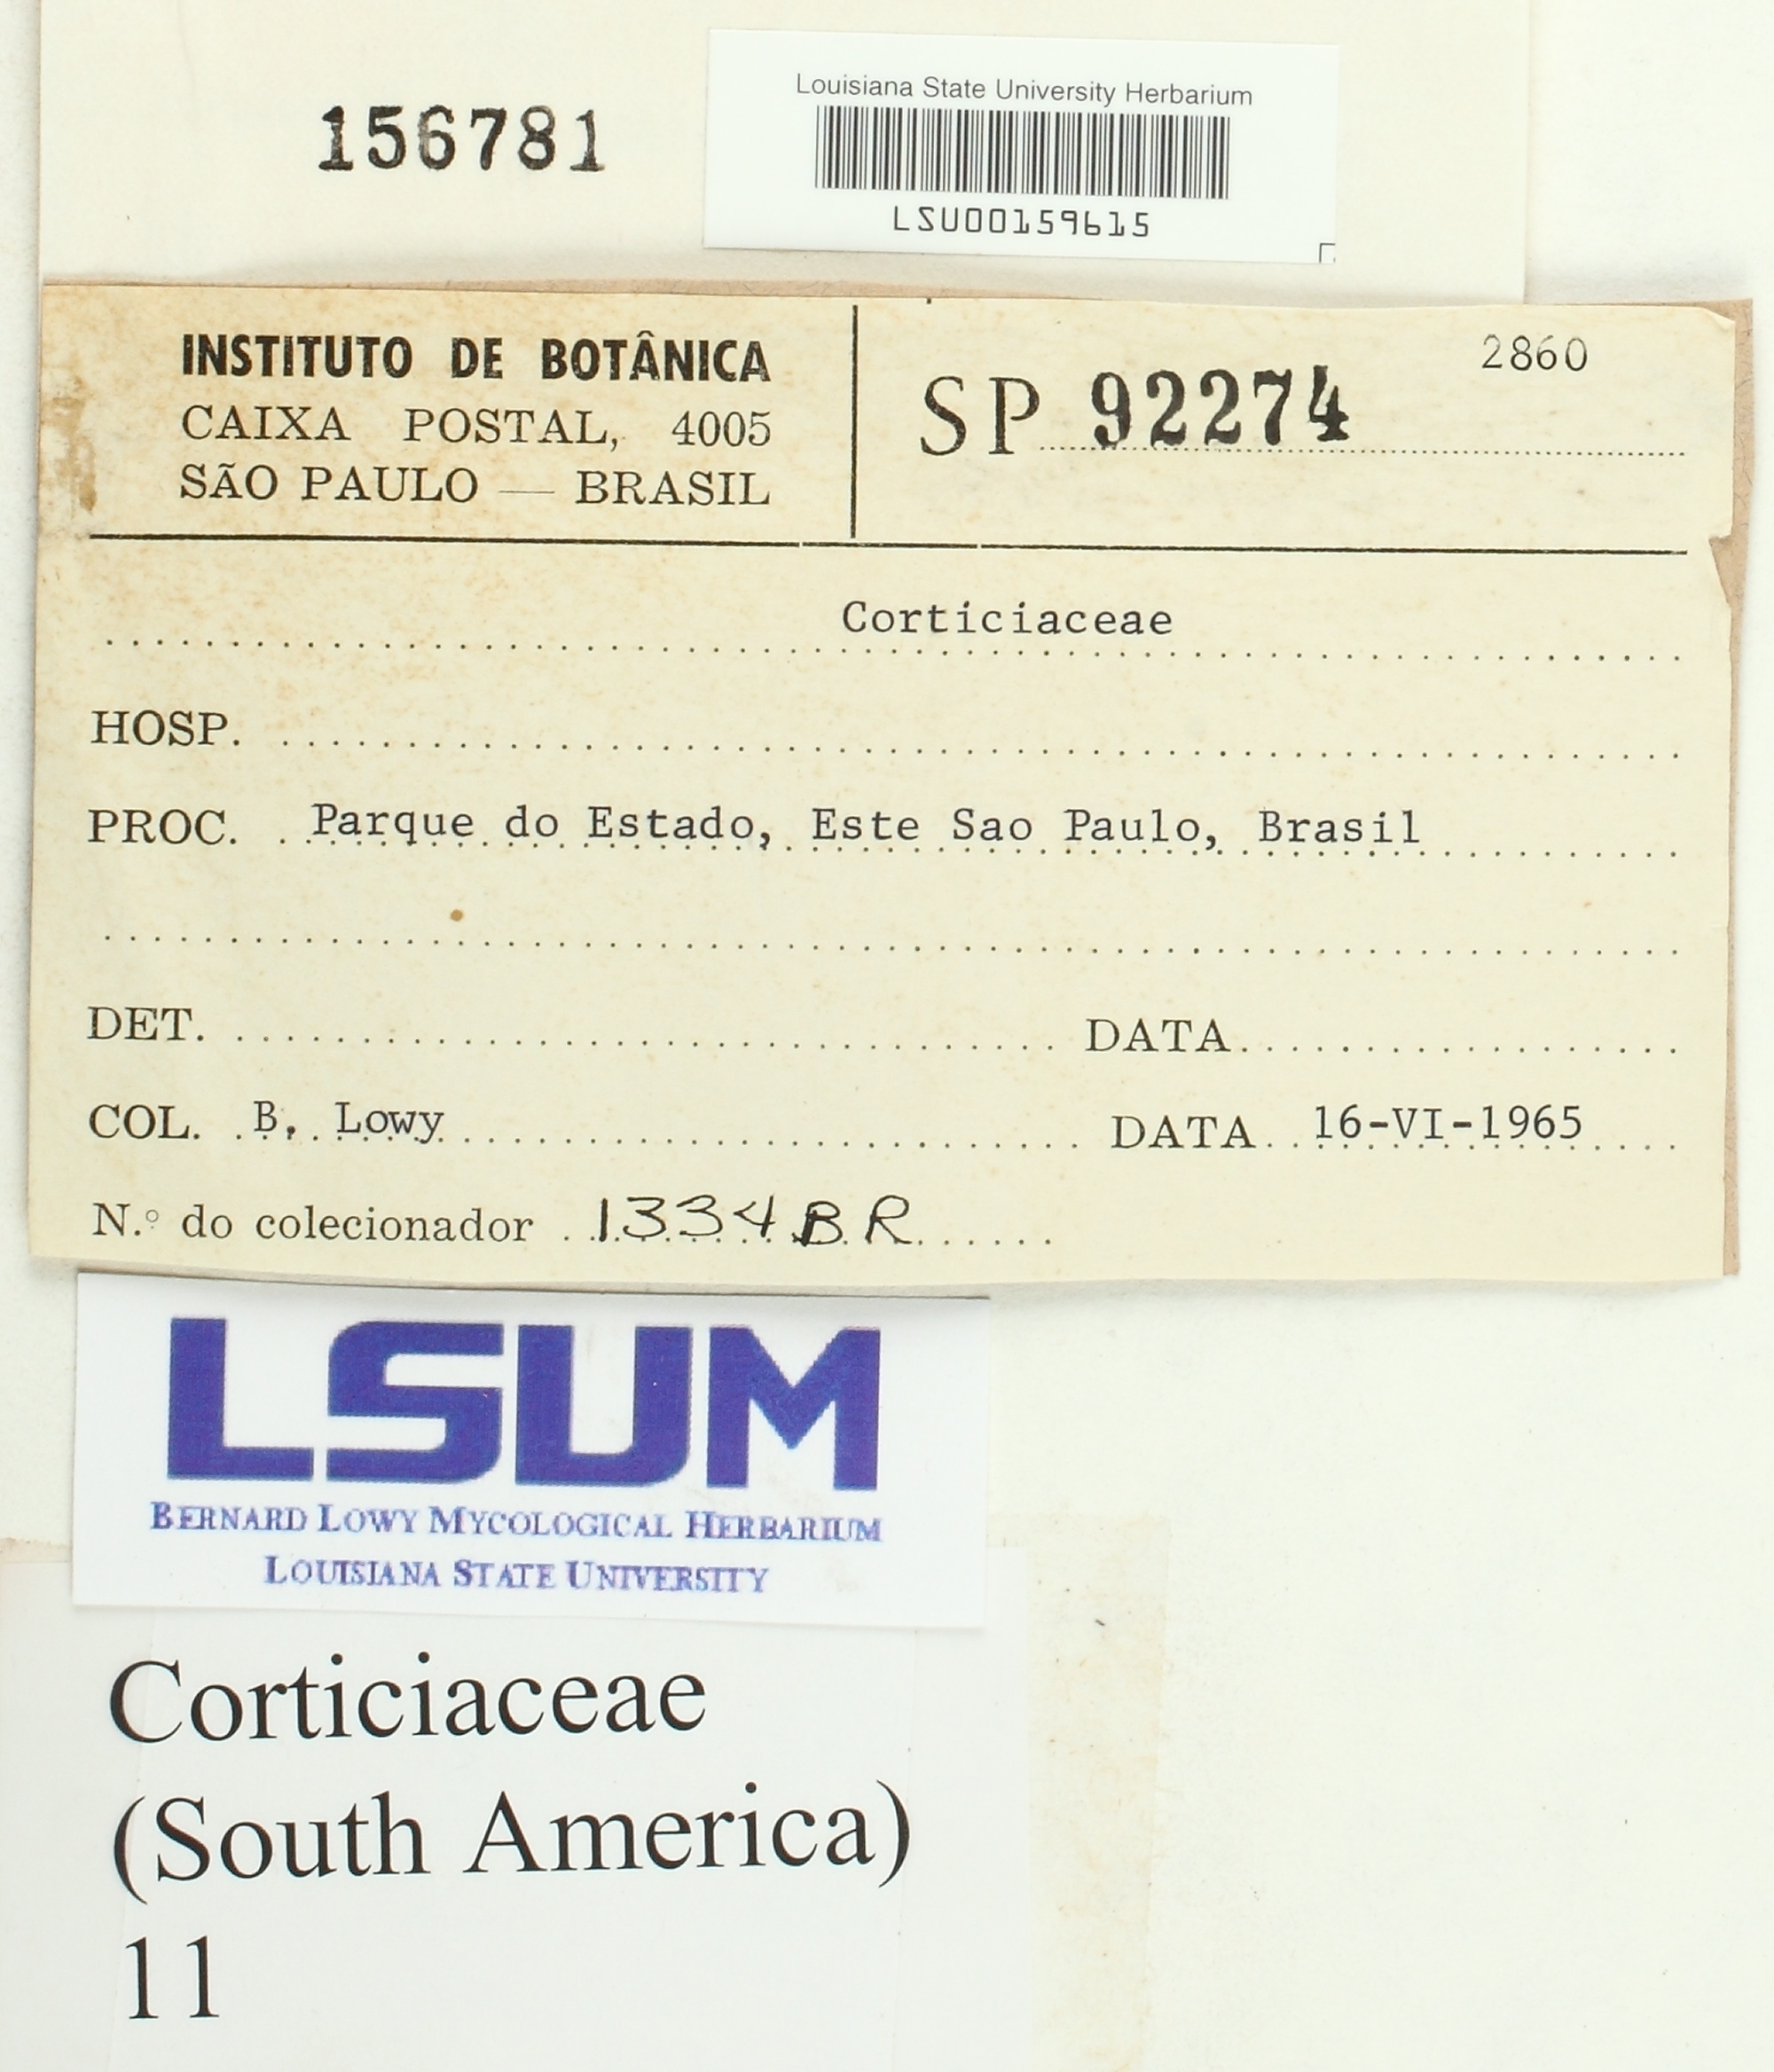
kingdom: Fungi
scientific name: Fungi
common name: Fungi
